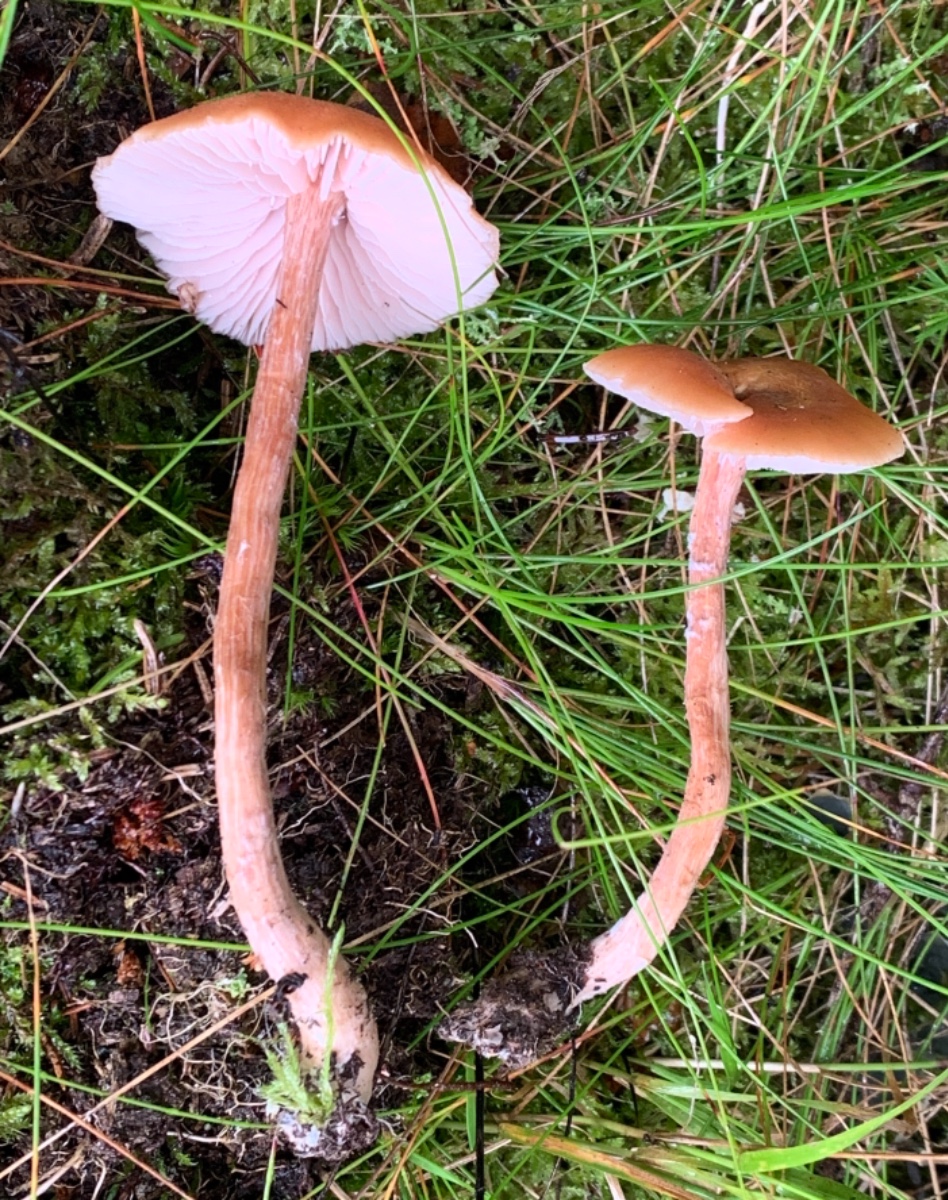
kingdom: Fungi
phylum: Basidiomycota
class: Agaricomycetes
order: Agaricales
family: Hydnangiaceae
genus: Laccaria
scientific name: Laccaria proxima
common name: stor ametysthat
